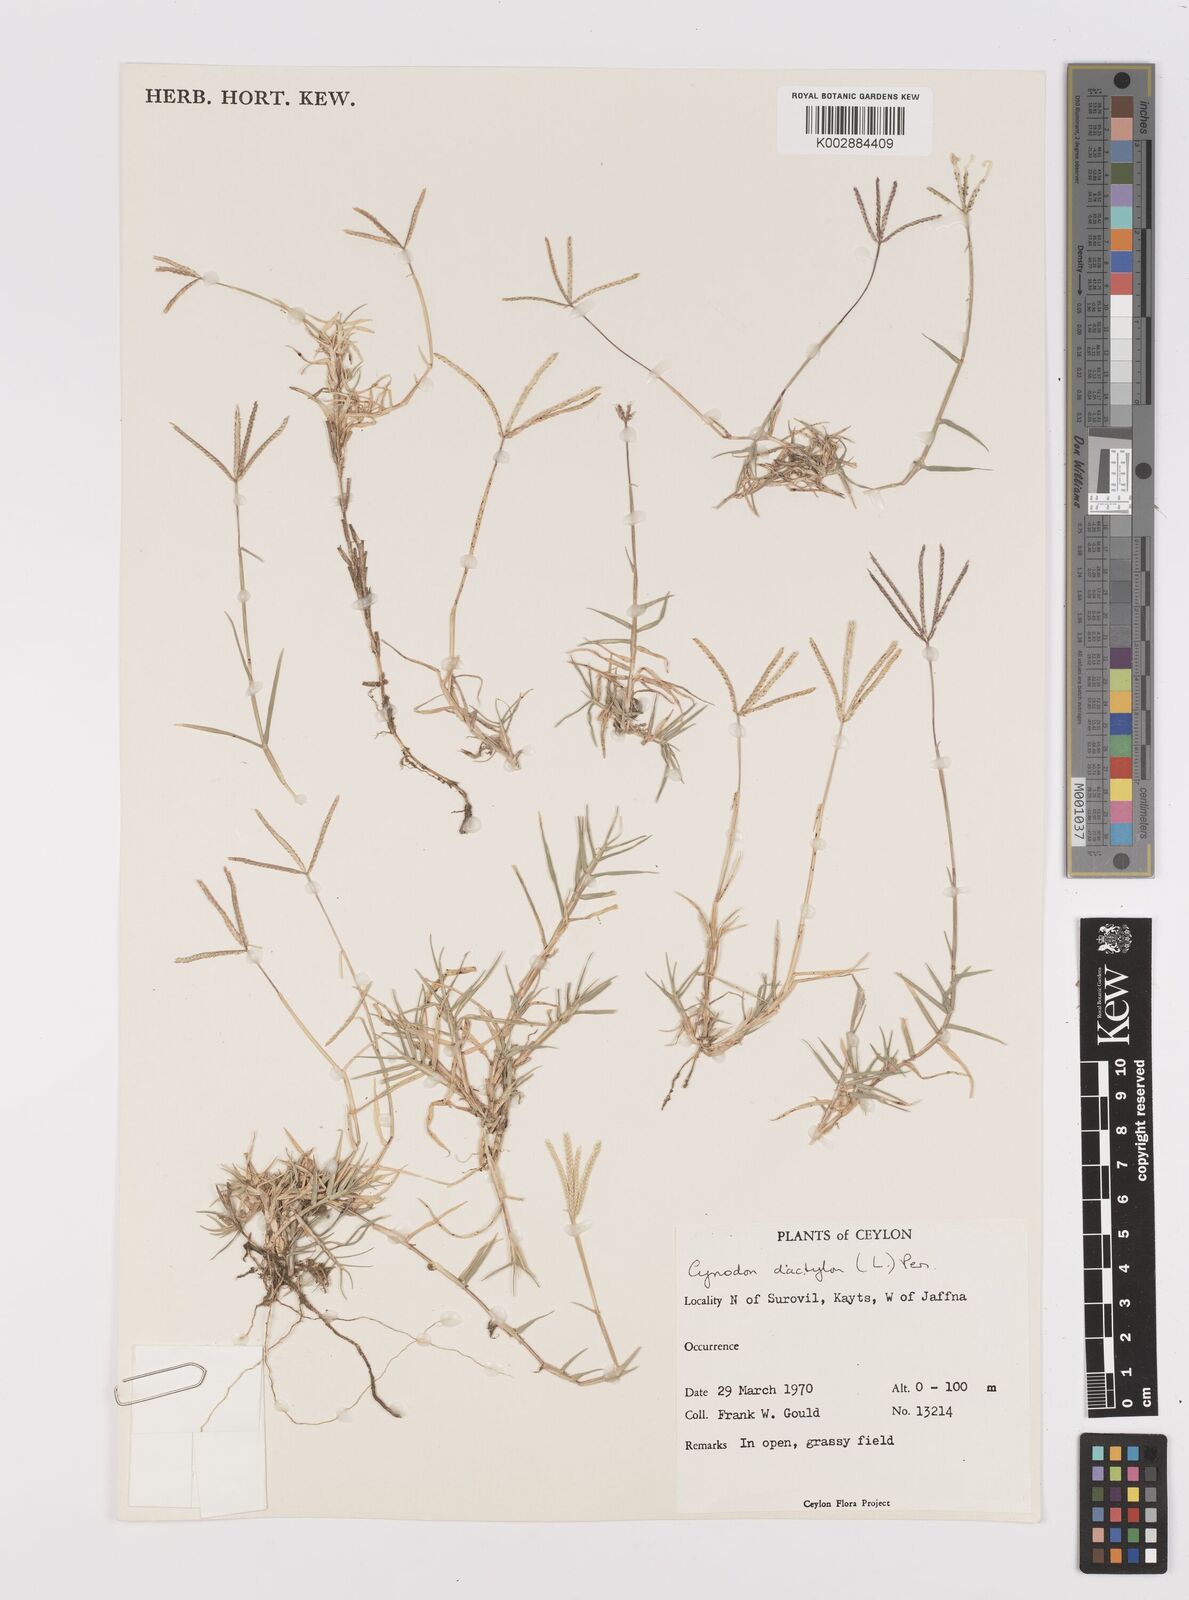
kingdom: Plantae
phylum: Tracheophyta
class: Liliopsida
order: Poales
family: Poaceae
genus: Cynodon
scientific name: Cynodon dactylon
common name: Bermuda grass
